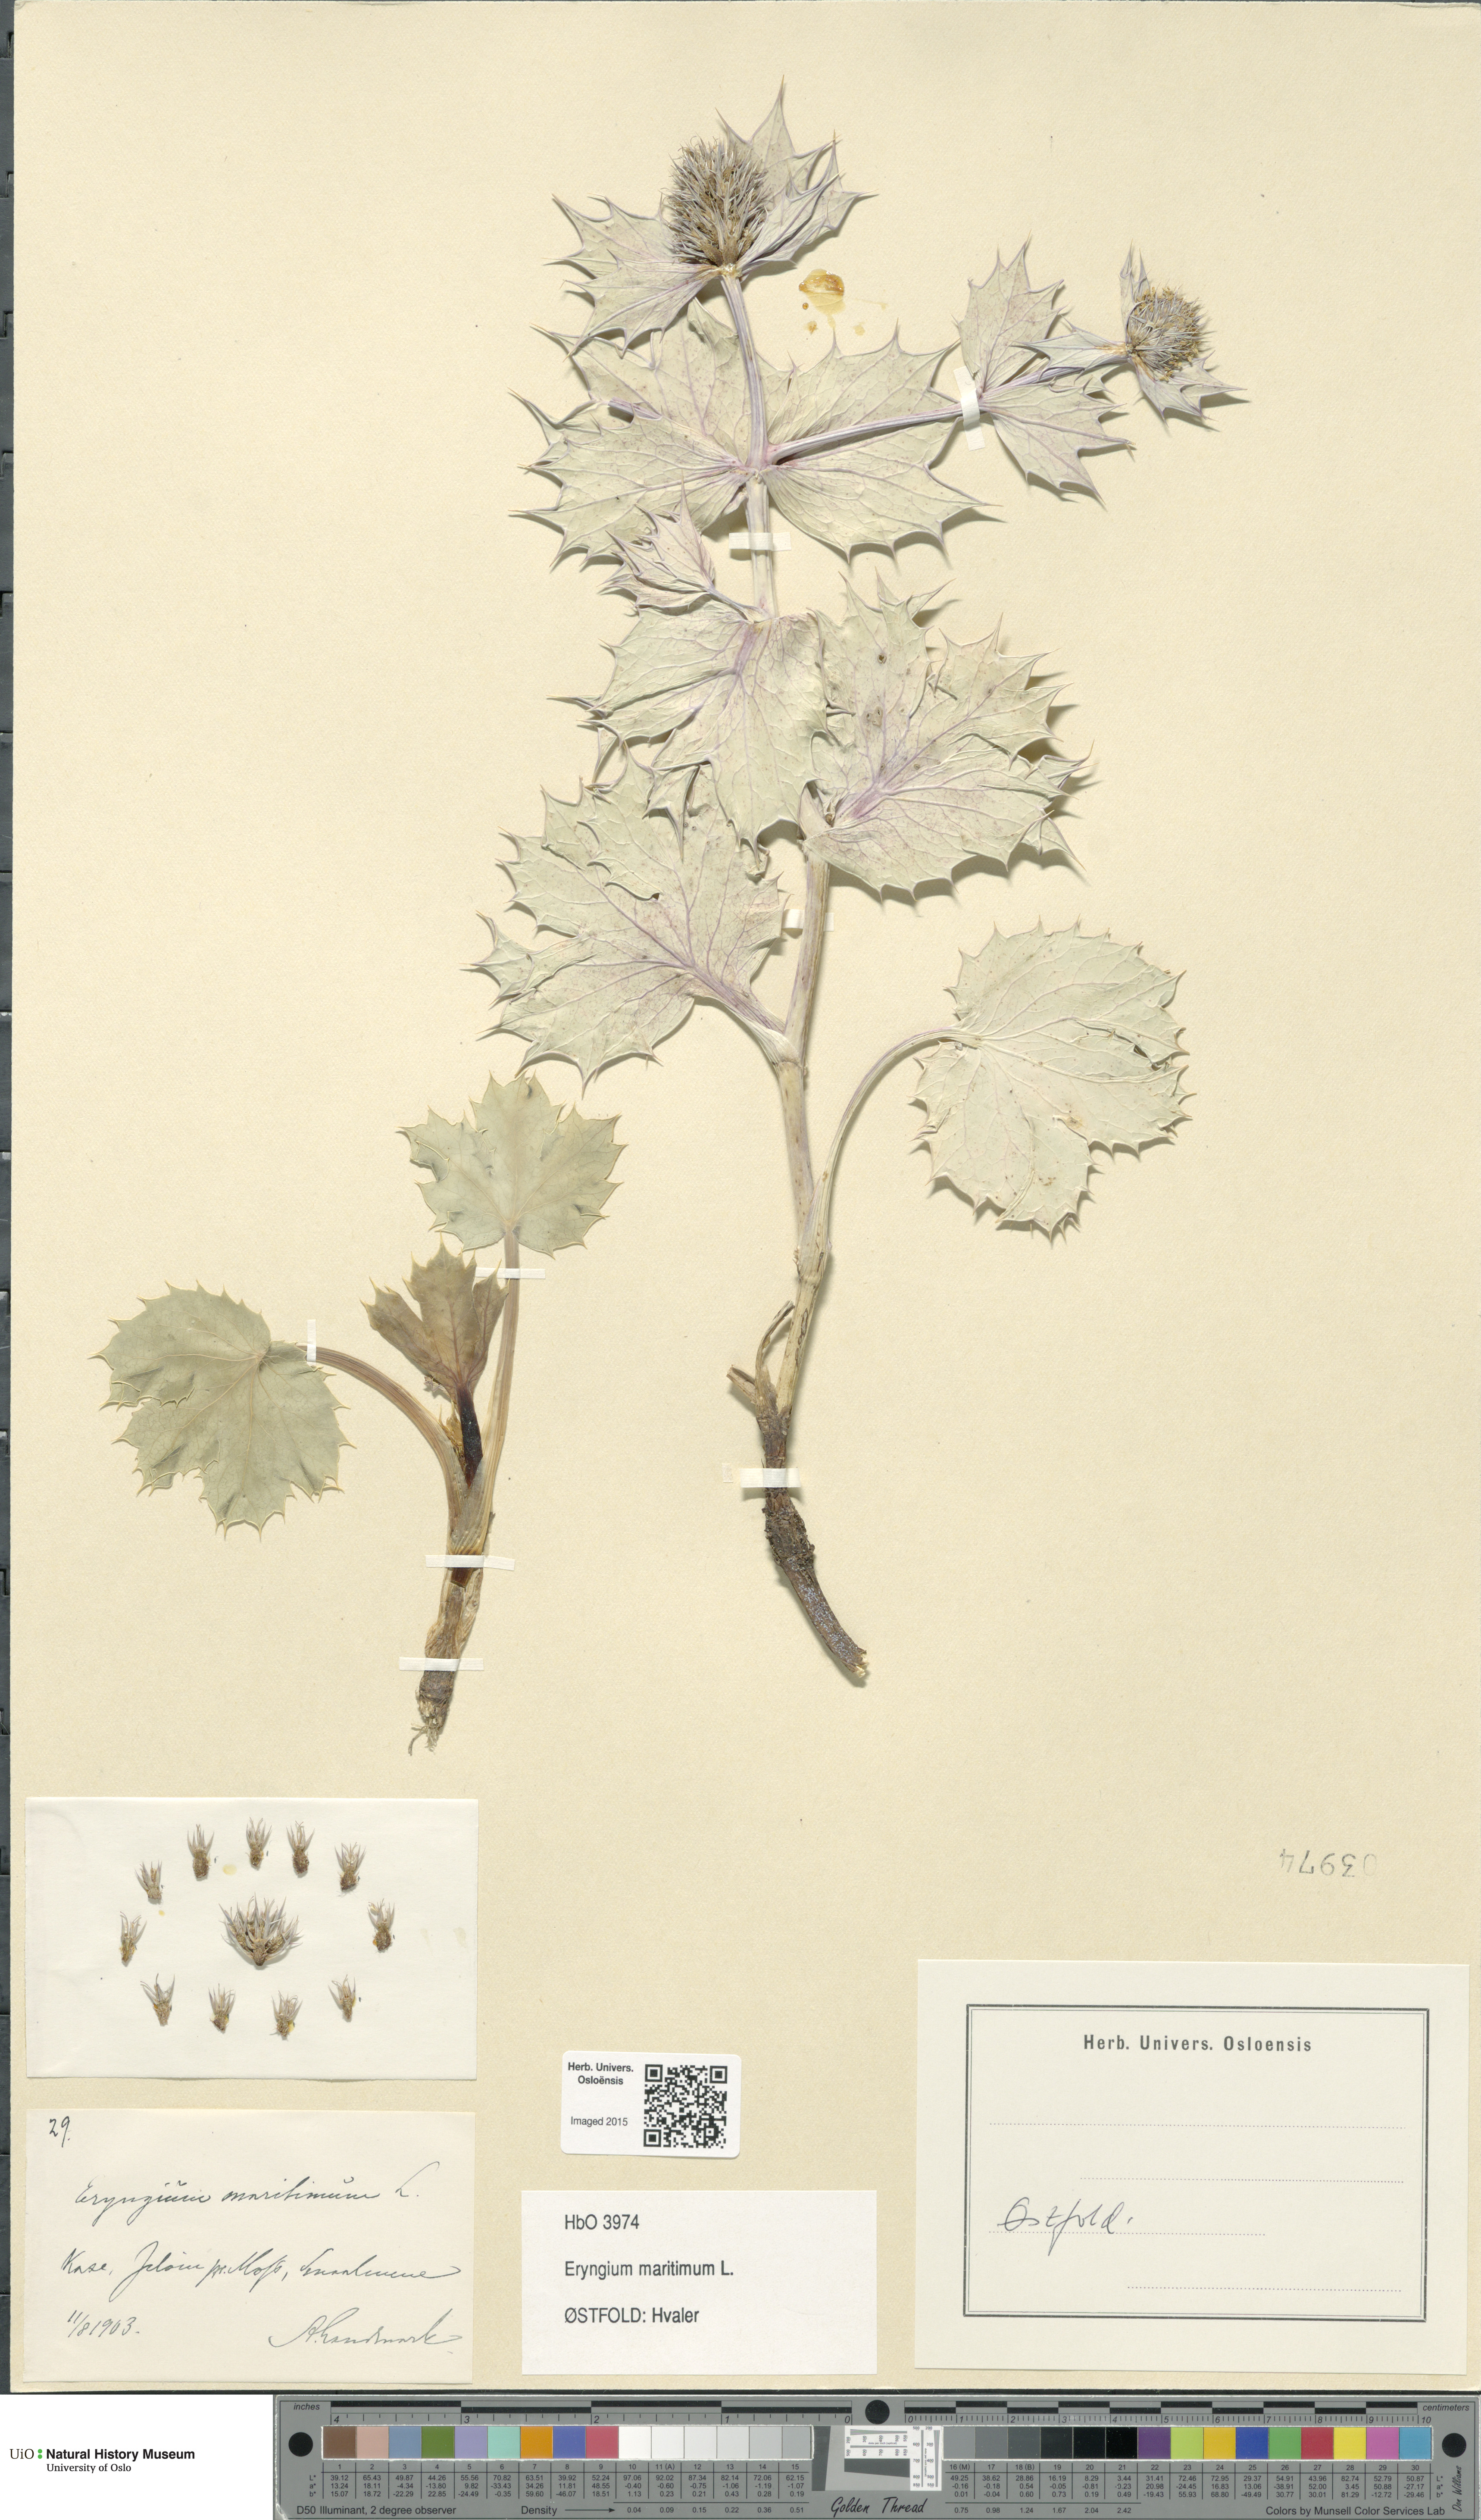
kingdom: Plantae
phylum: Tracheophyta
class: Magnoliopsida
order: Apiales
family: Apiaceae
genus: Eryngium
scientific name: Eryngium maritimum
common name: Sea-holly
